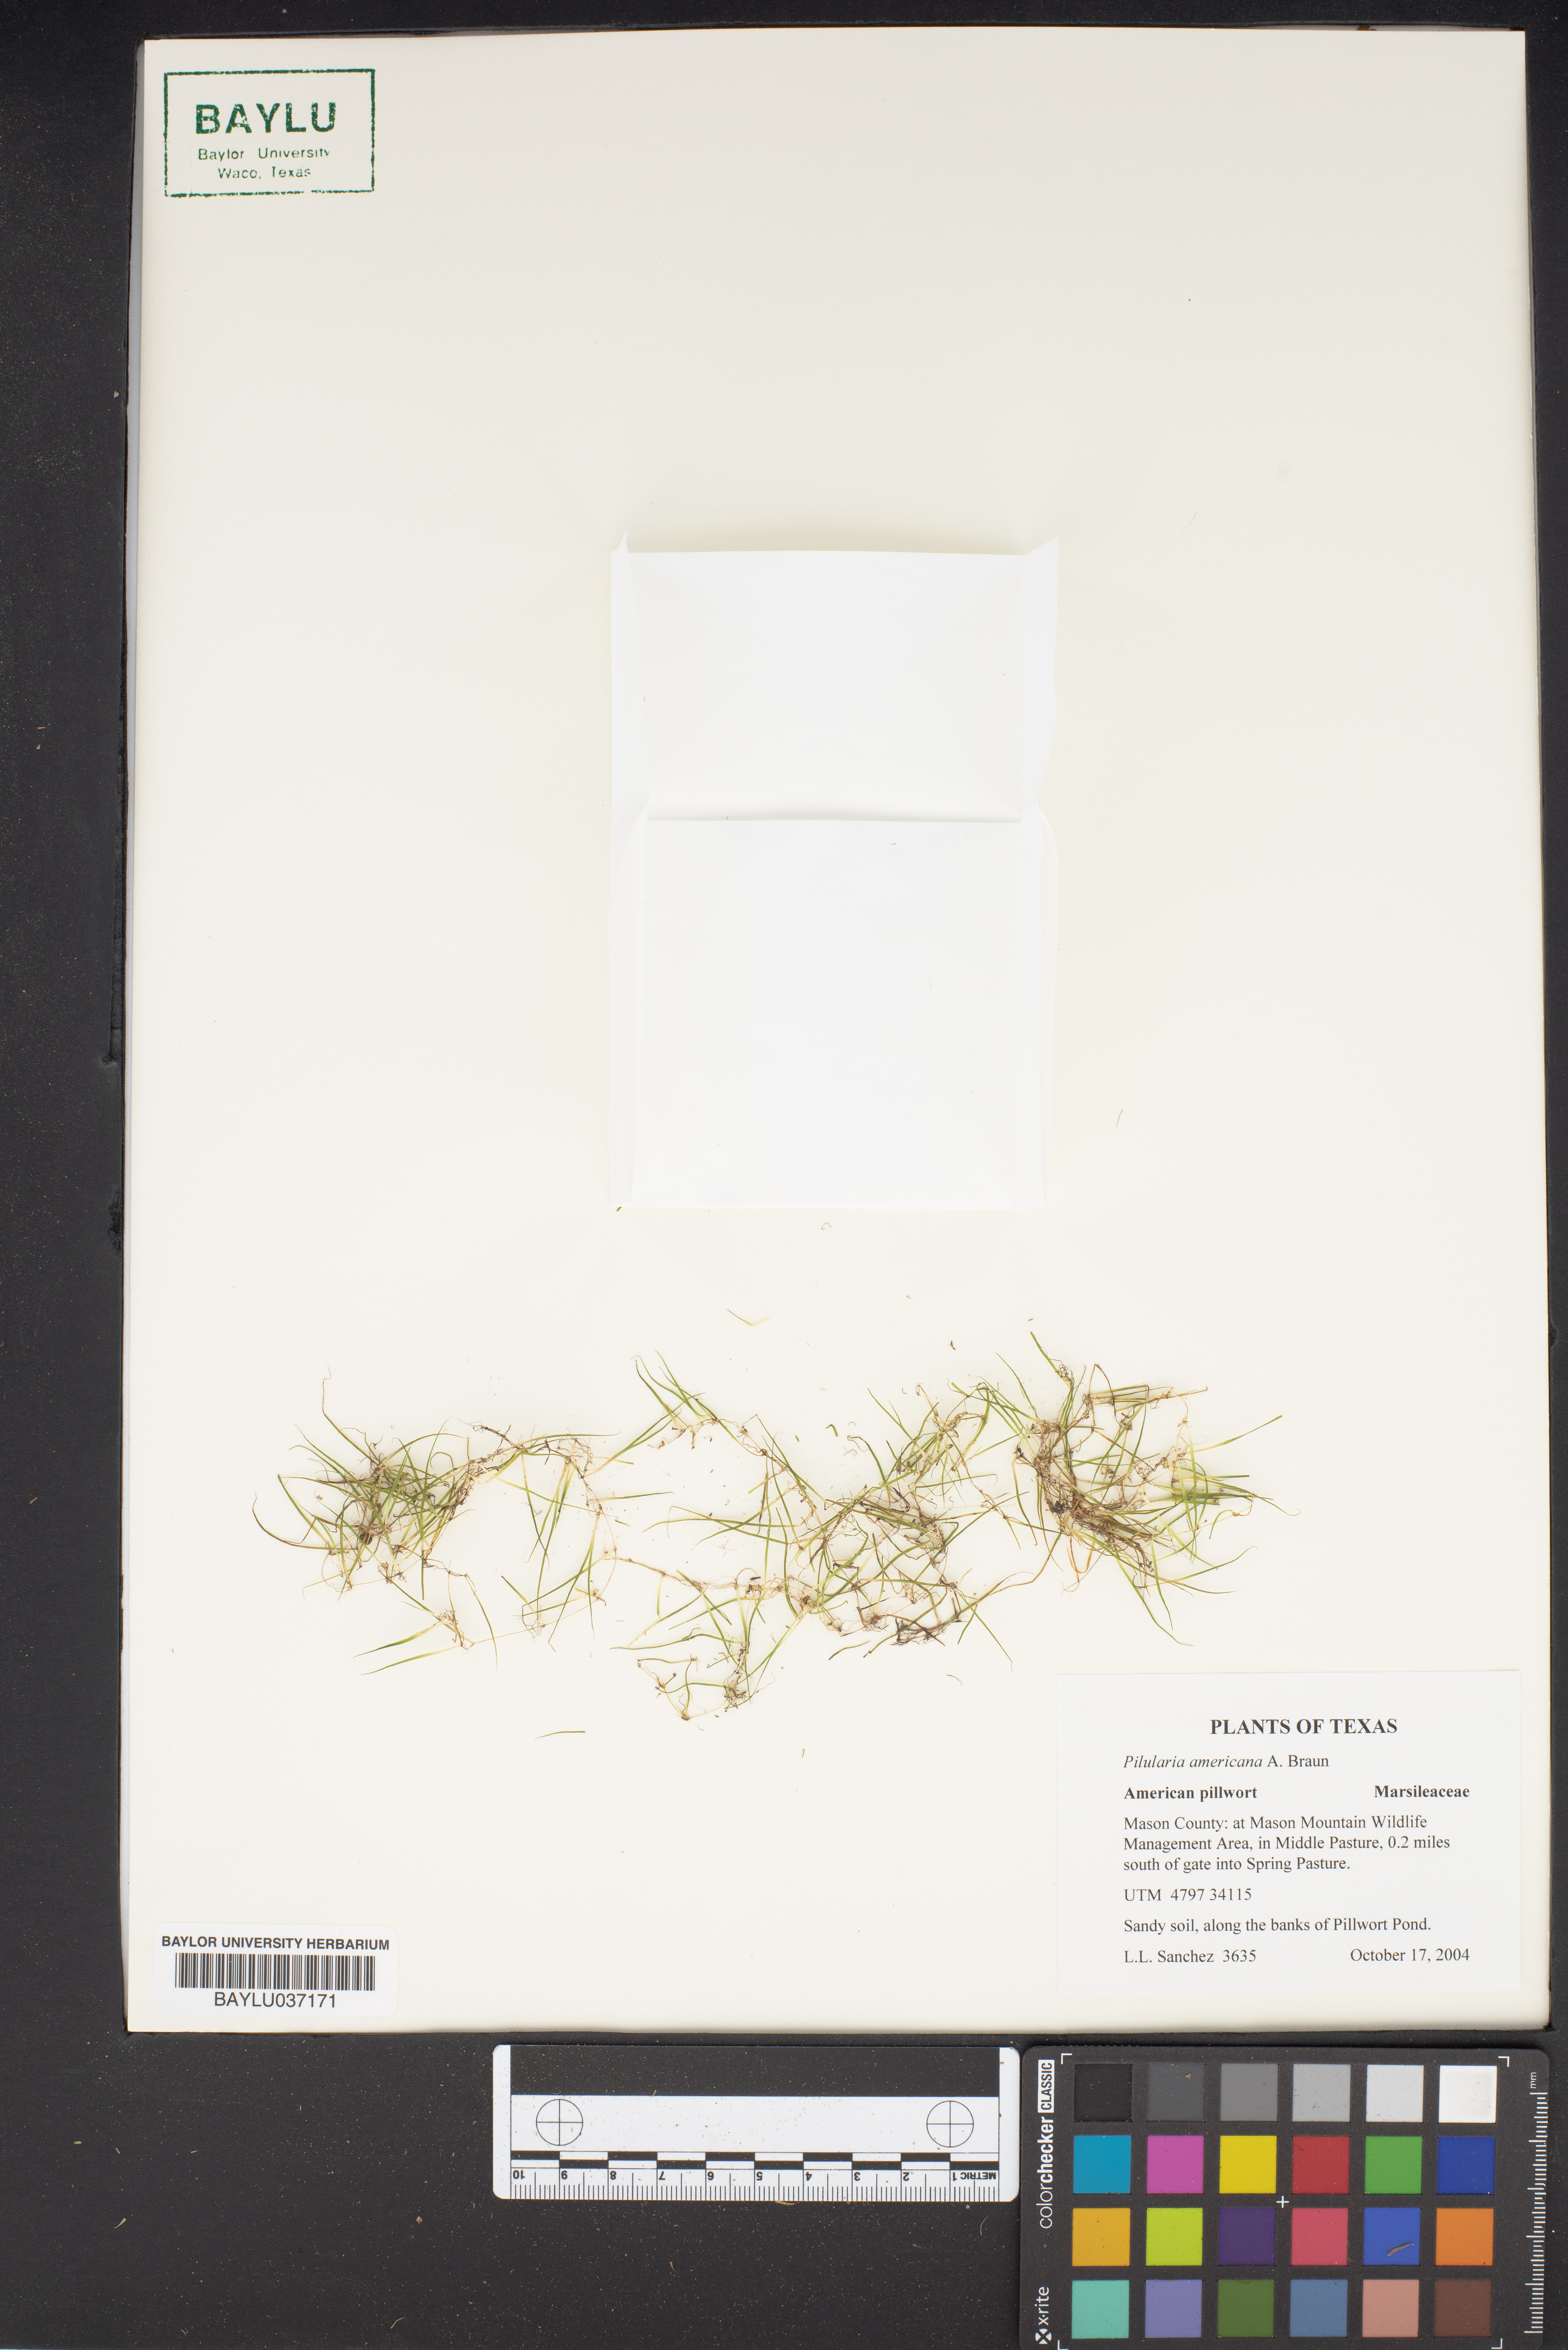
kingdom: Plantae
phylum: Tracheophyta
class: Polypodiopsida
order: Salviniales
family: Marsileaceae
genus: Pilularia
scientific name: Pilularia americana
